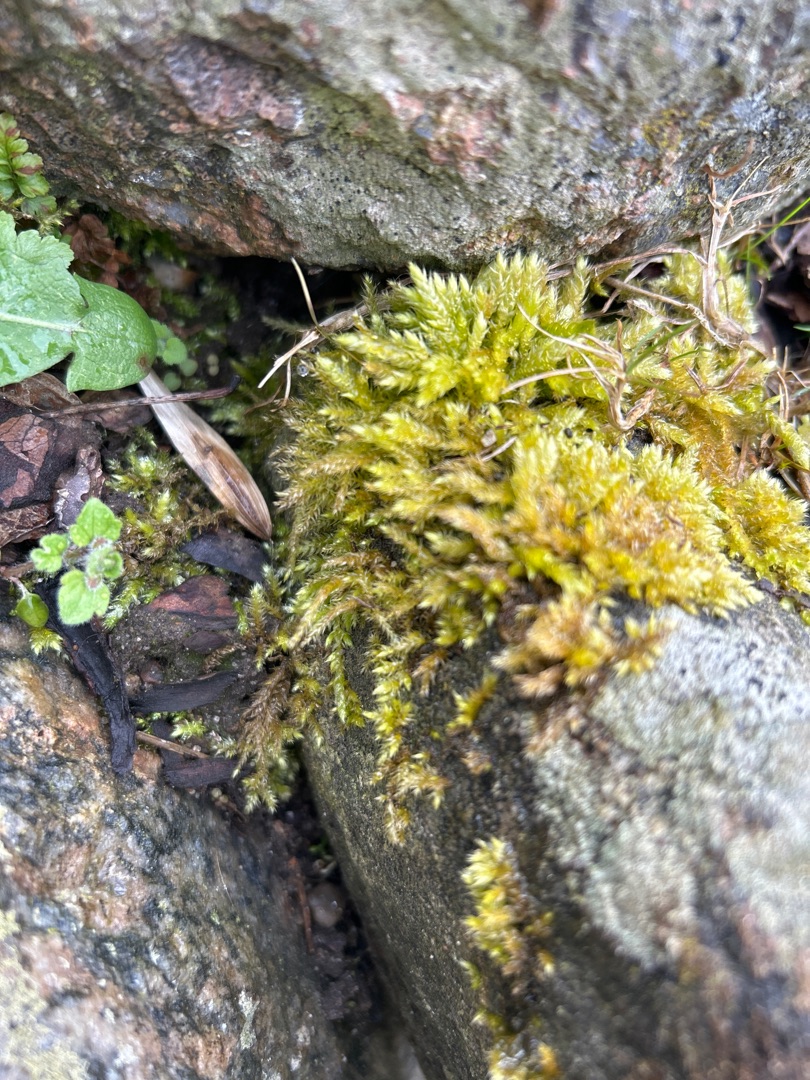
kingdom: Plantae
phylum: Bryophyta
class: Bryopsida
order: Hypnales
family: Brachytheciaceae
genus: Brachythecium
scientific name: Brachythecium rutabulum
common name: Almindelig kortkapsel
